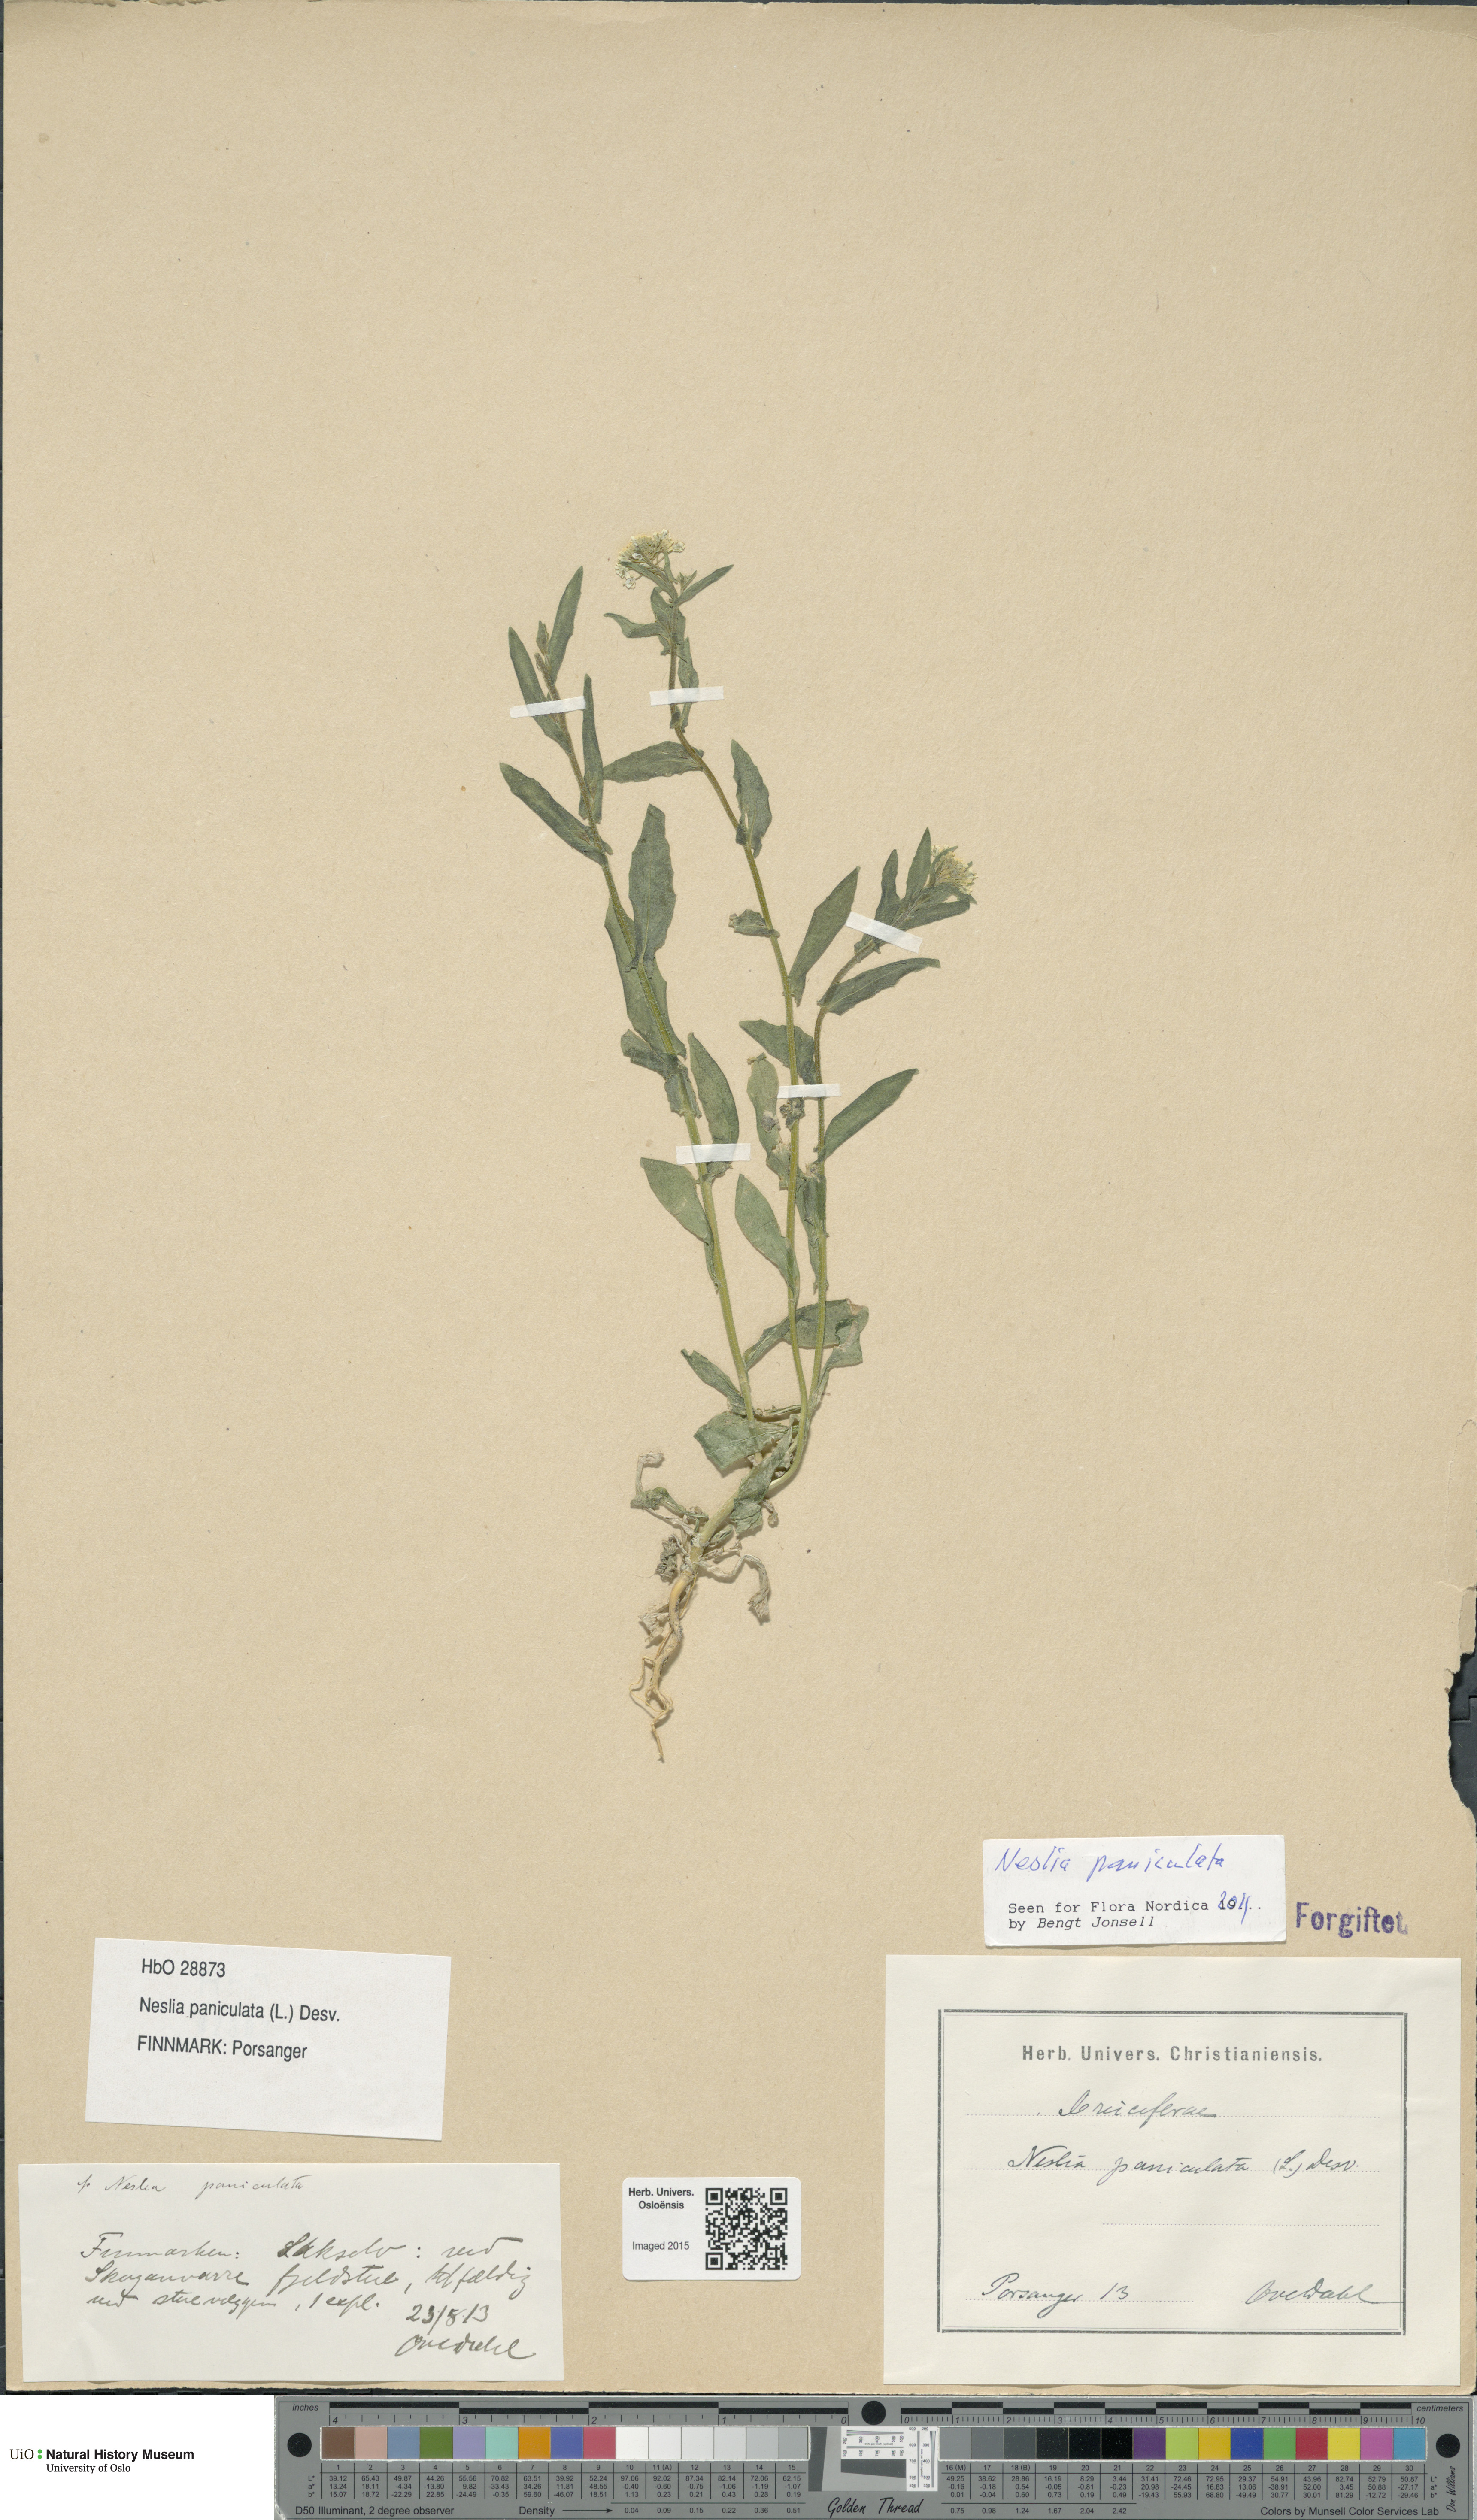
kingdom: Plantae
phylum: Tracheophyta
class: Magnoliopsida
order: Brassicales
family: Brassicaceae
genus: Neslia
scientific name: Neslia paniculata
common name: Ball mustard
